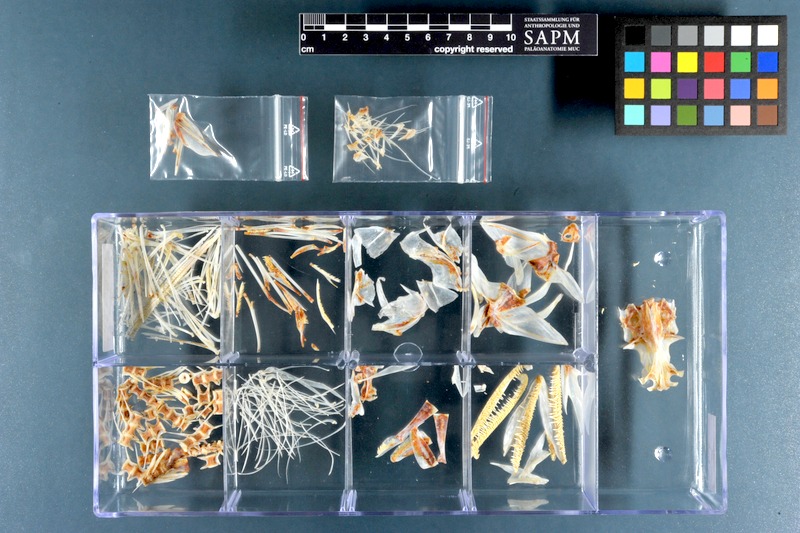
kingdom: Animalia
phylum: Chordata
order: Aulopiformes
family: Synodontidae
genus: Saurida
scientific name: Saurida tumbil
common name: Greater lizardfish
